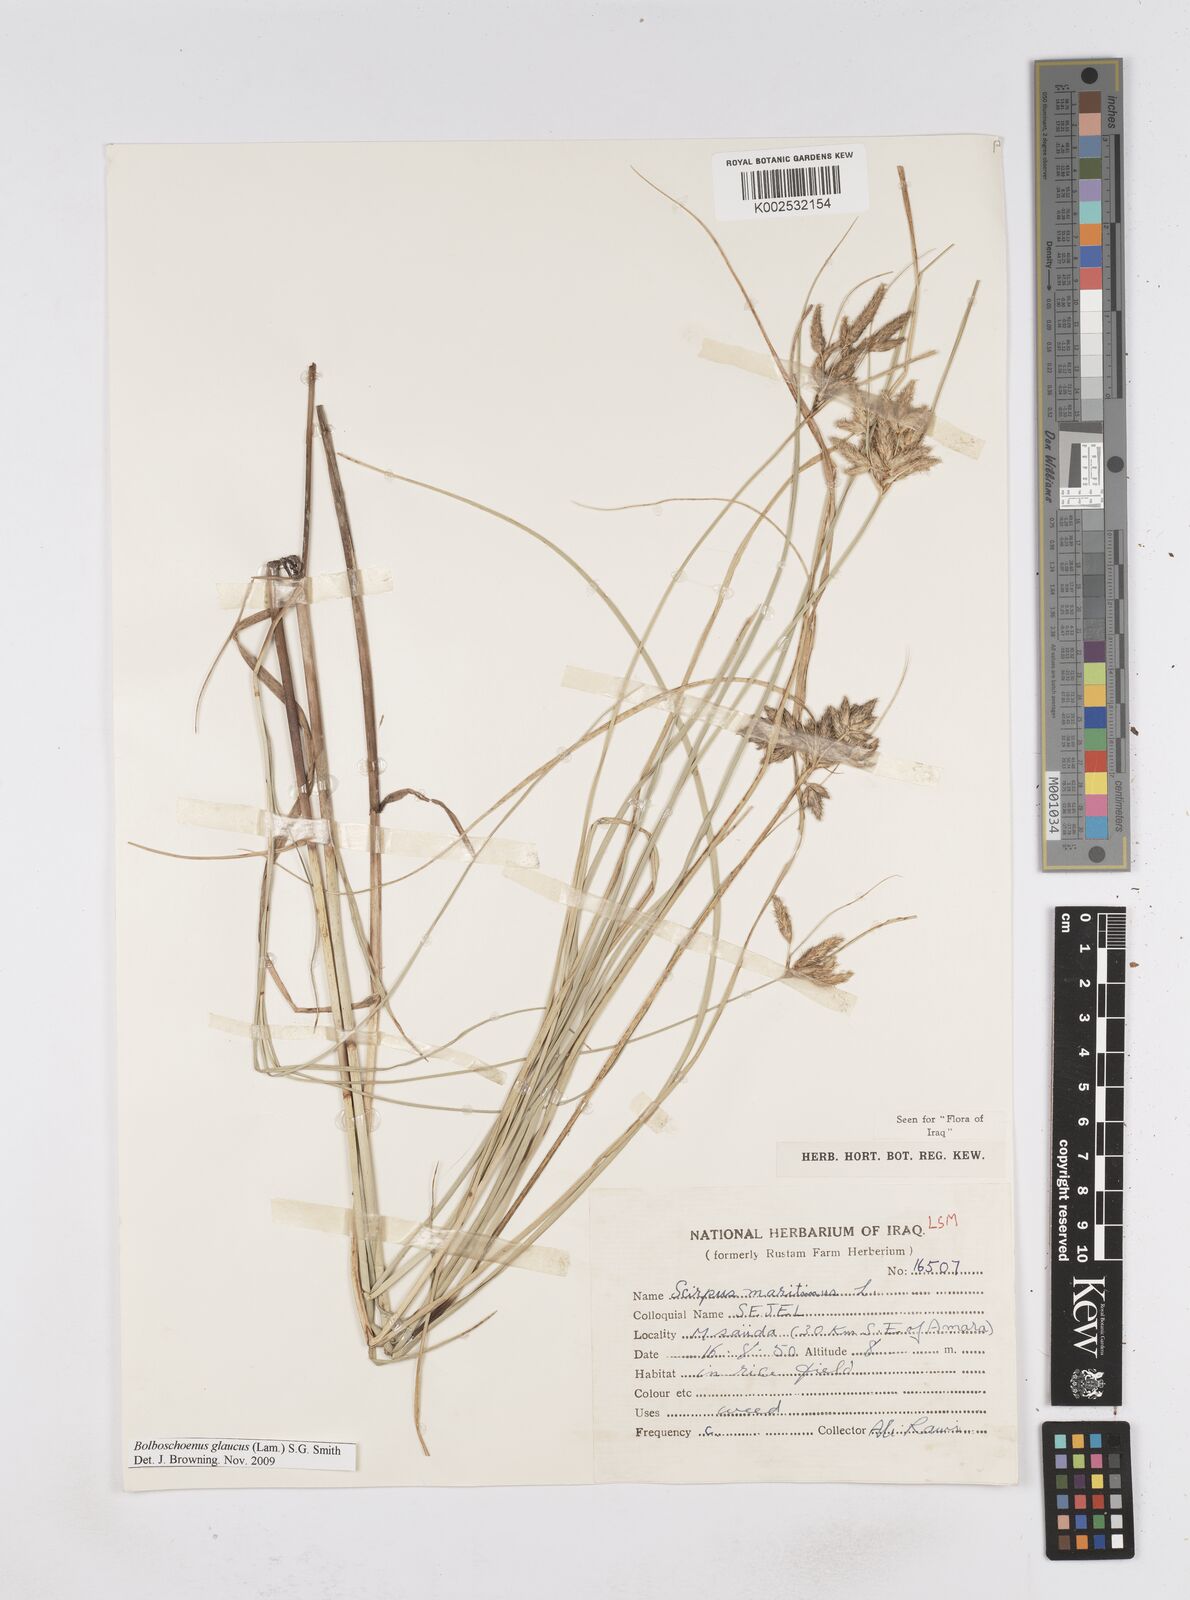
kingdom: Plantae
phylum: Tracheophyta
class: Liliopsida
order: Poales
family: Cyperaceae
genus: Bolboschoenus
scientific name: Bolboschoenus maritimus
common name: Sea club-rush
